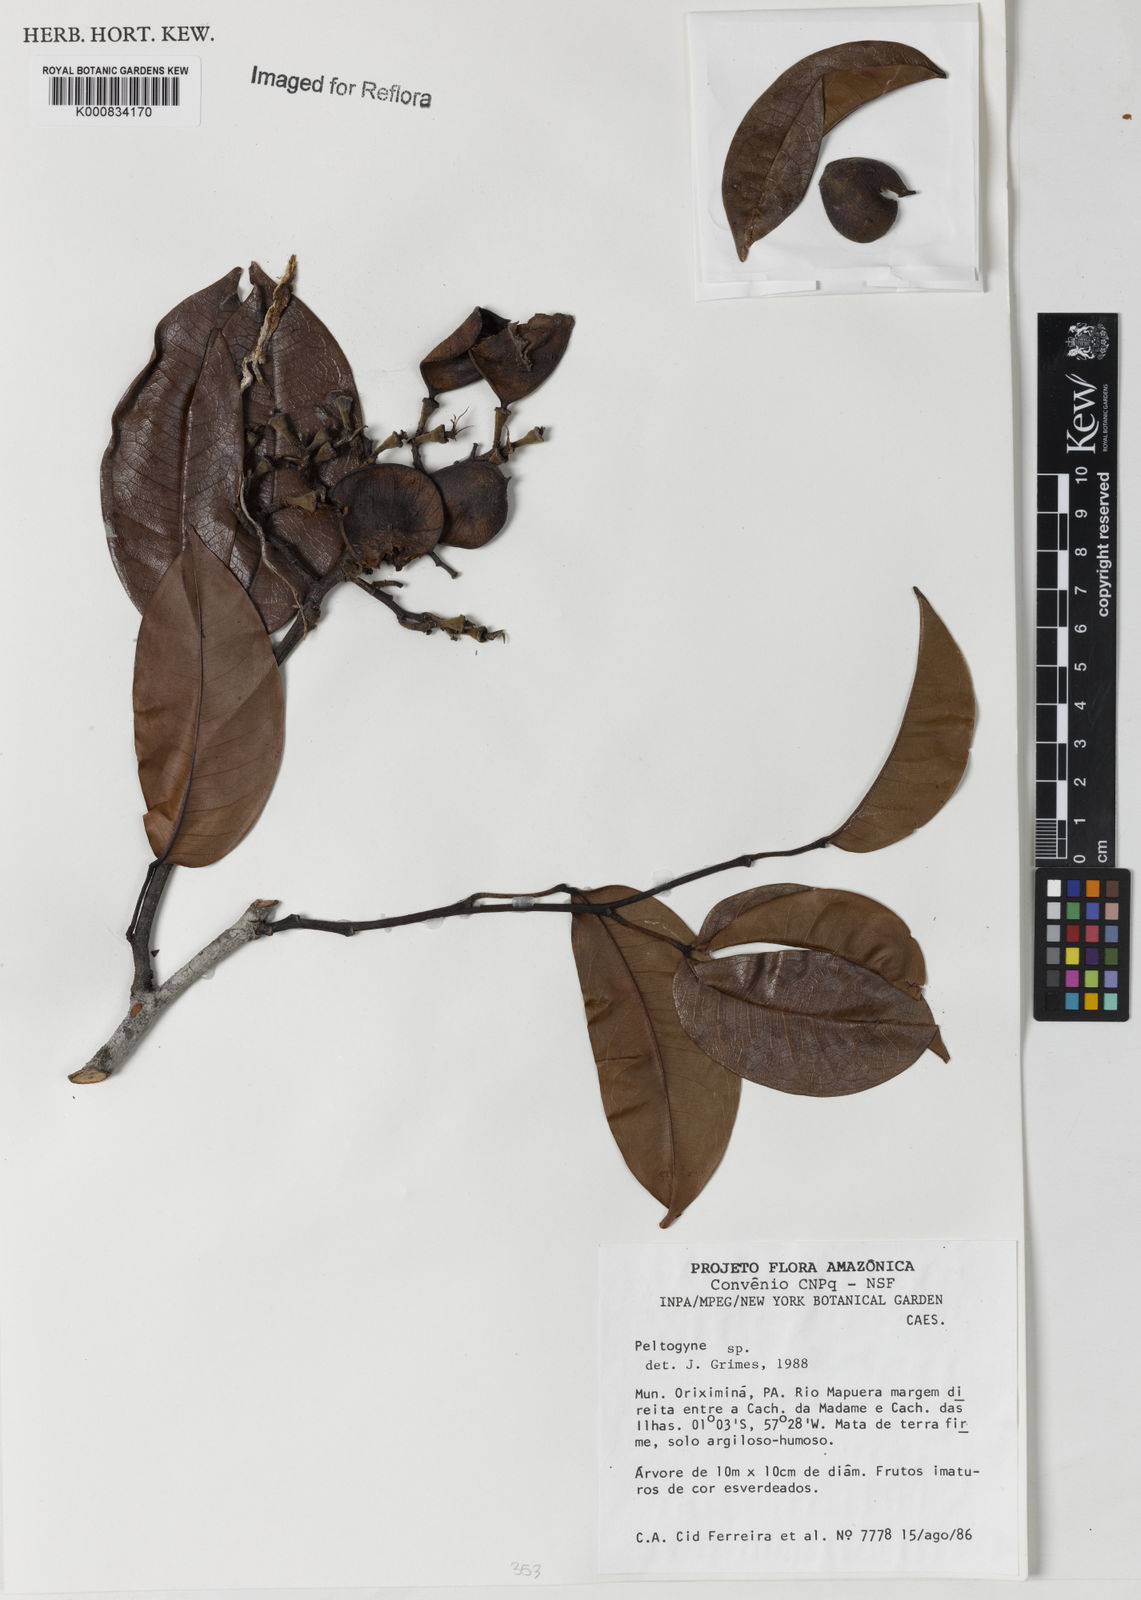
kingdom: Plantae
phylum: Tracheophyta
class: Magnoliopsida
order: Fabales
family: Fabaceae
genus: Peltogyne
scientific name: Peltogyne
